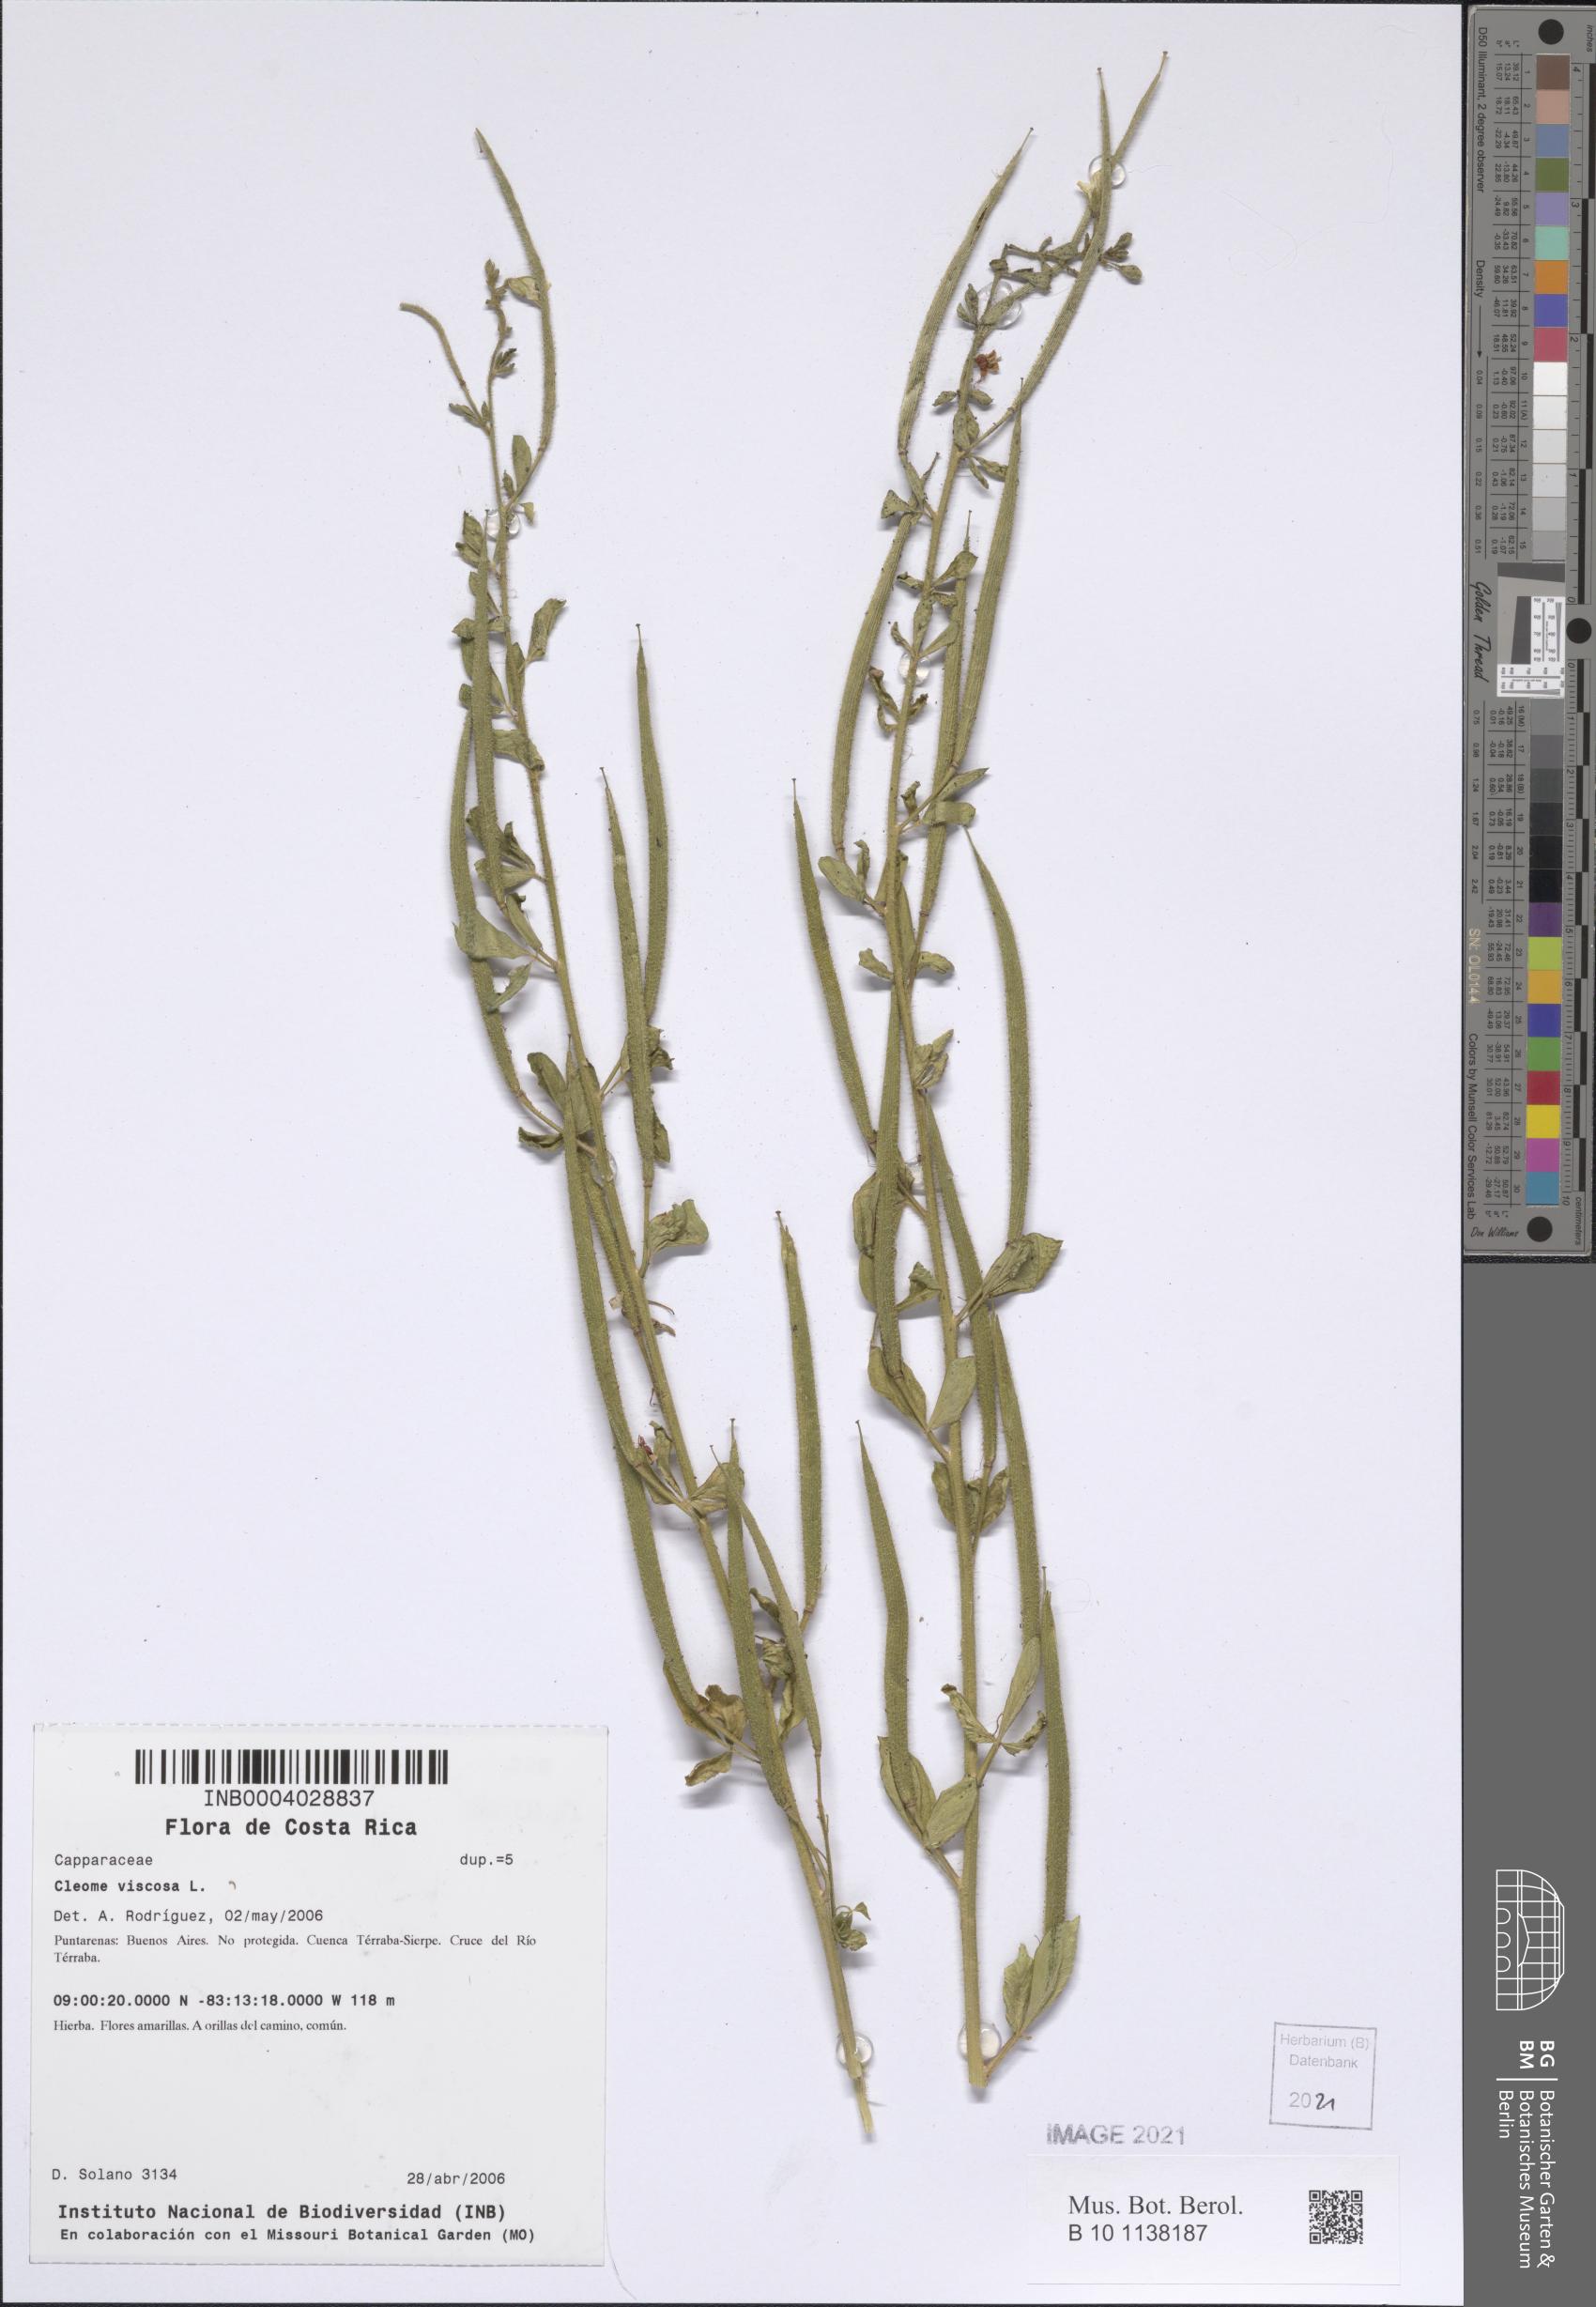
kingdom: Plantae
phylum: Tracheophyta
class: Magnoliopsida
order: Brassicales
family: Cleomaceae
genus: Arivela
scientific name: Arivela viscosa
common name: Asian spiderflower
